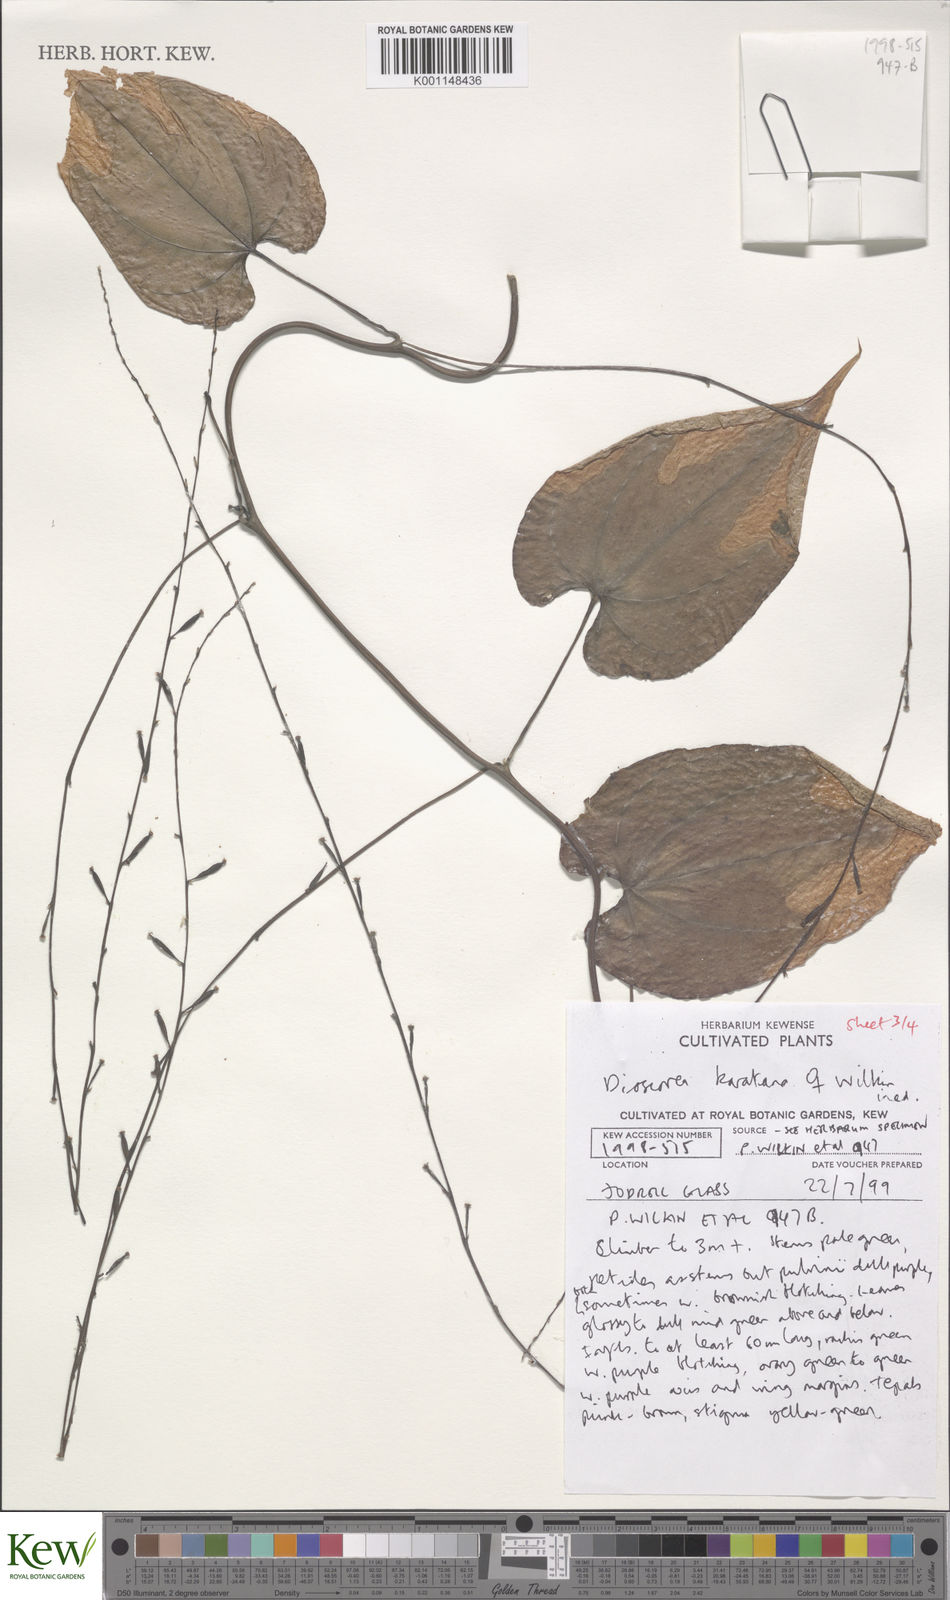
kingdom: Plantae
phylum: Tracheophyta
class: Liliopsida
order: Dioscoreales
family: Dioscoreaceae
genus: Dioscorea
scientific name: Dioscorea madecassa
